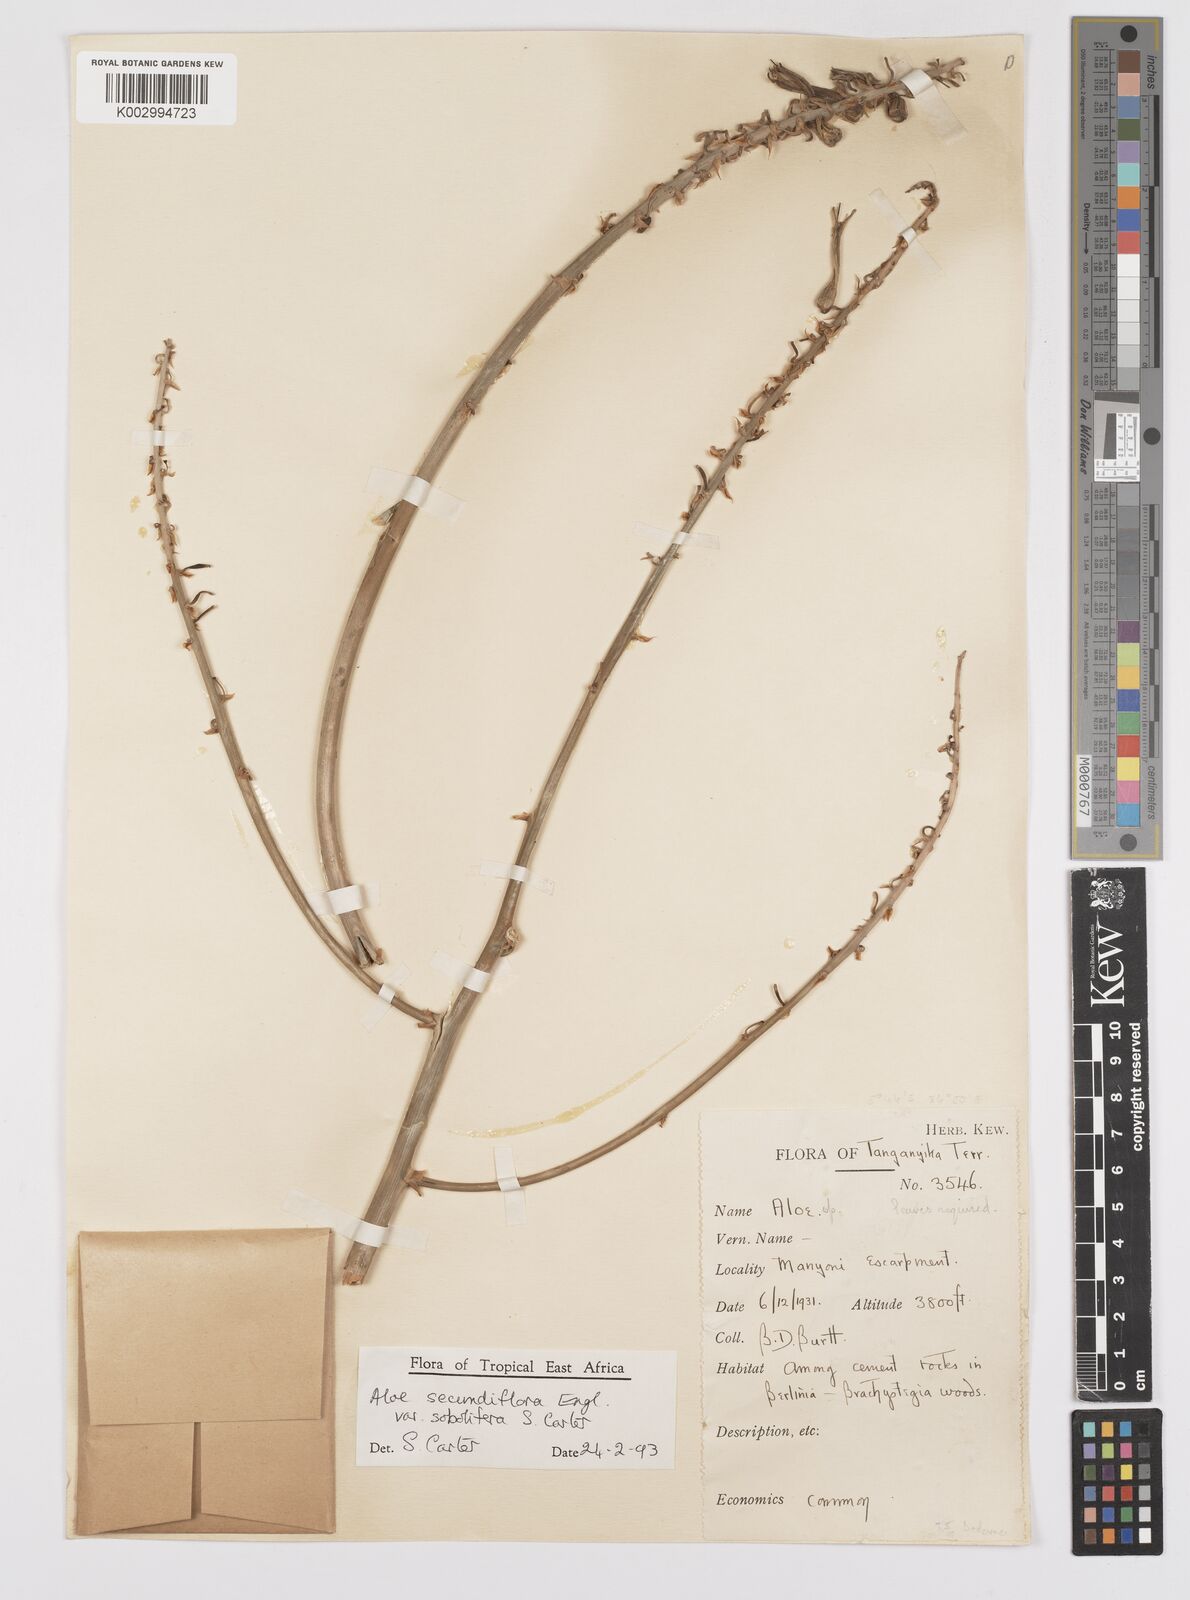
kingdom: Plantae
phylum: Tracheophyta
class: Liliopsida
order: Asparagales
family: Asphodelaceae
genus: Aloe
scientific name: Aloe sobolifera
